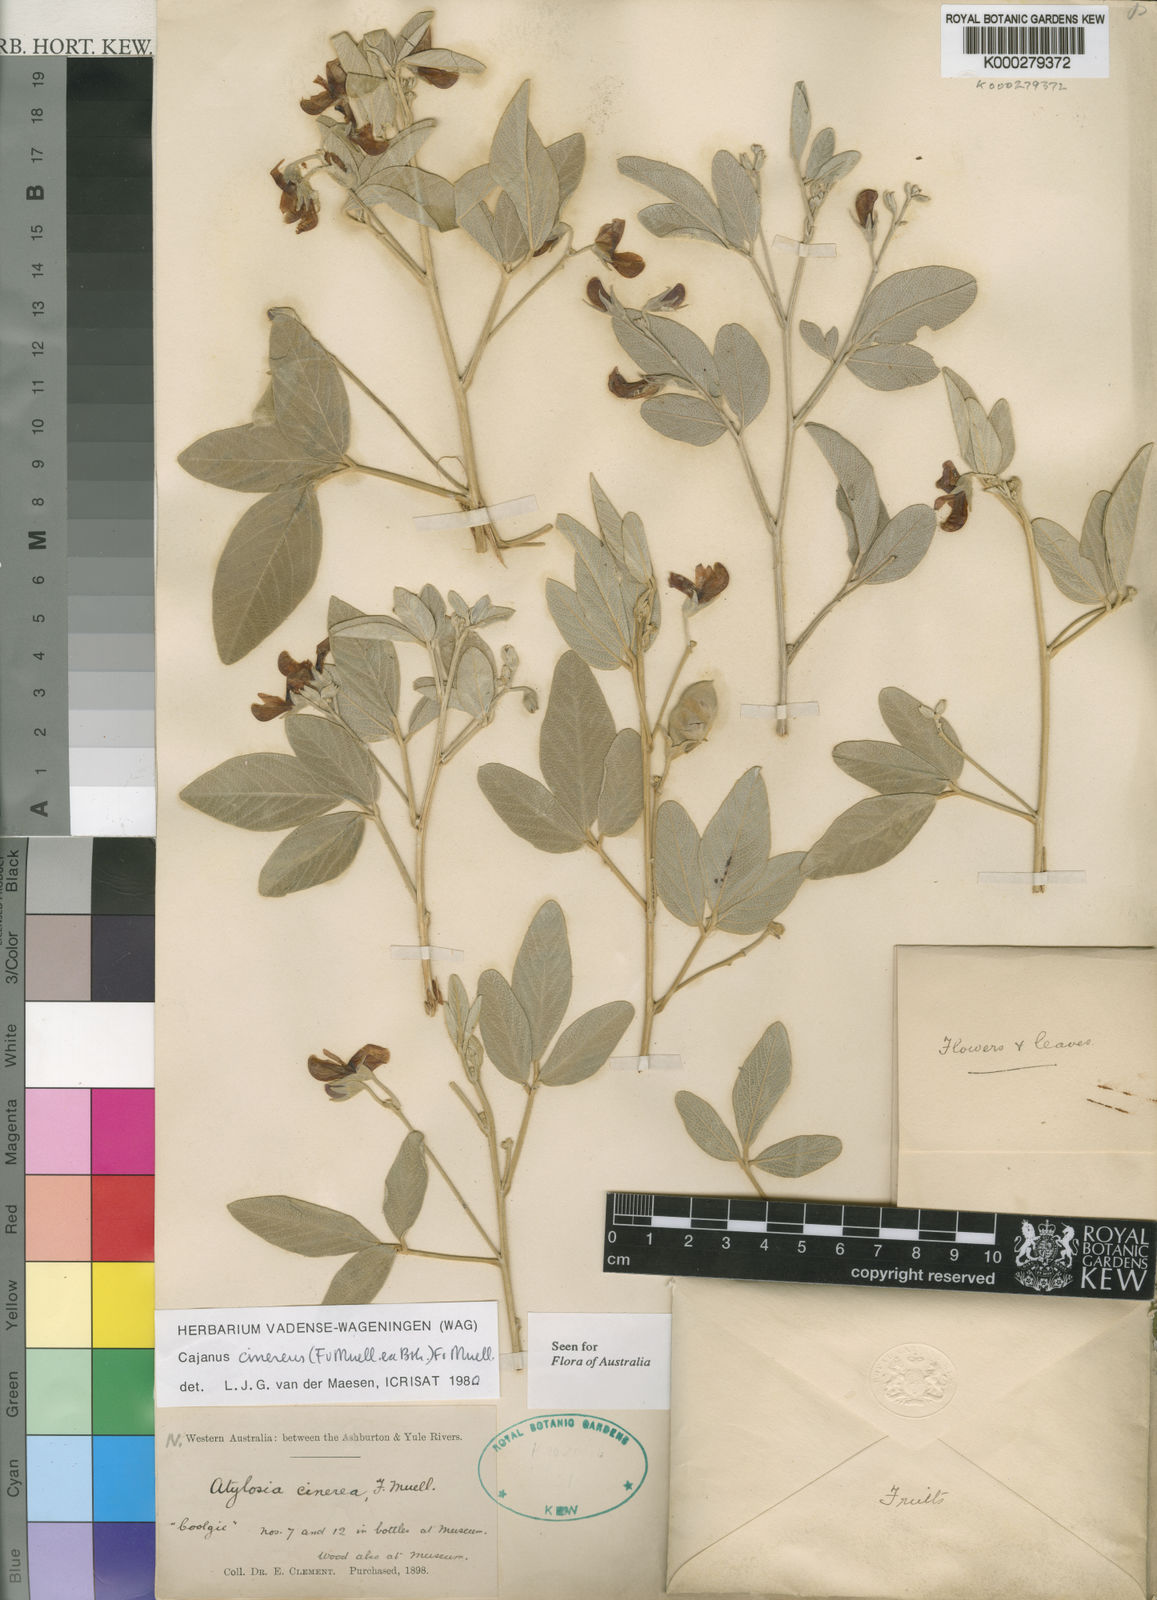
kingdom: Plantae
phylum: Tracheophyta
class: Magnoliopsida
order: Fabales
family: Fabaceae
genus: Cajanus
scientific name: Cajanus cinereus
